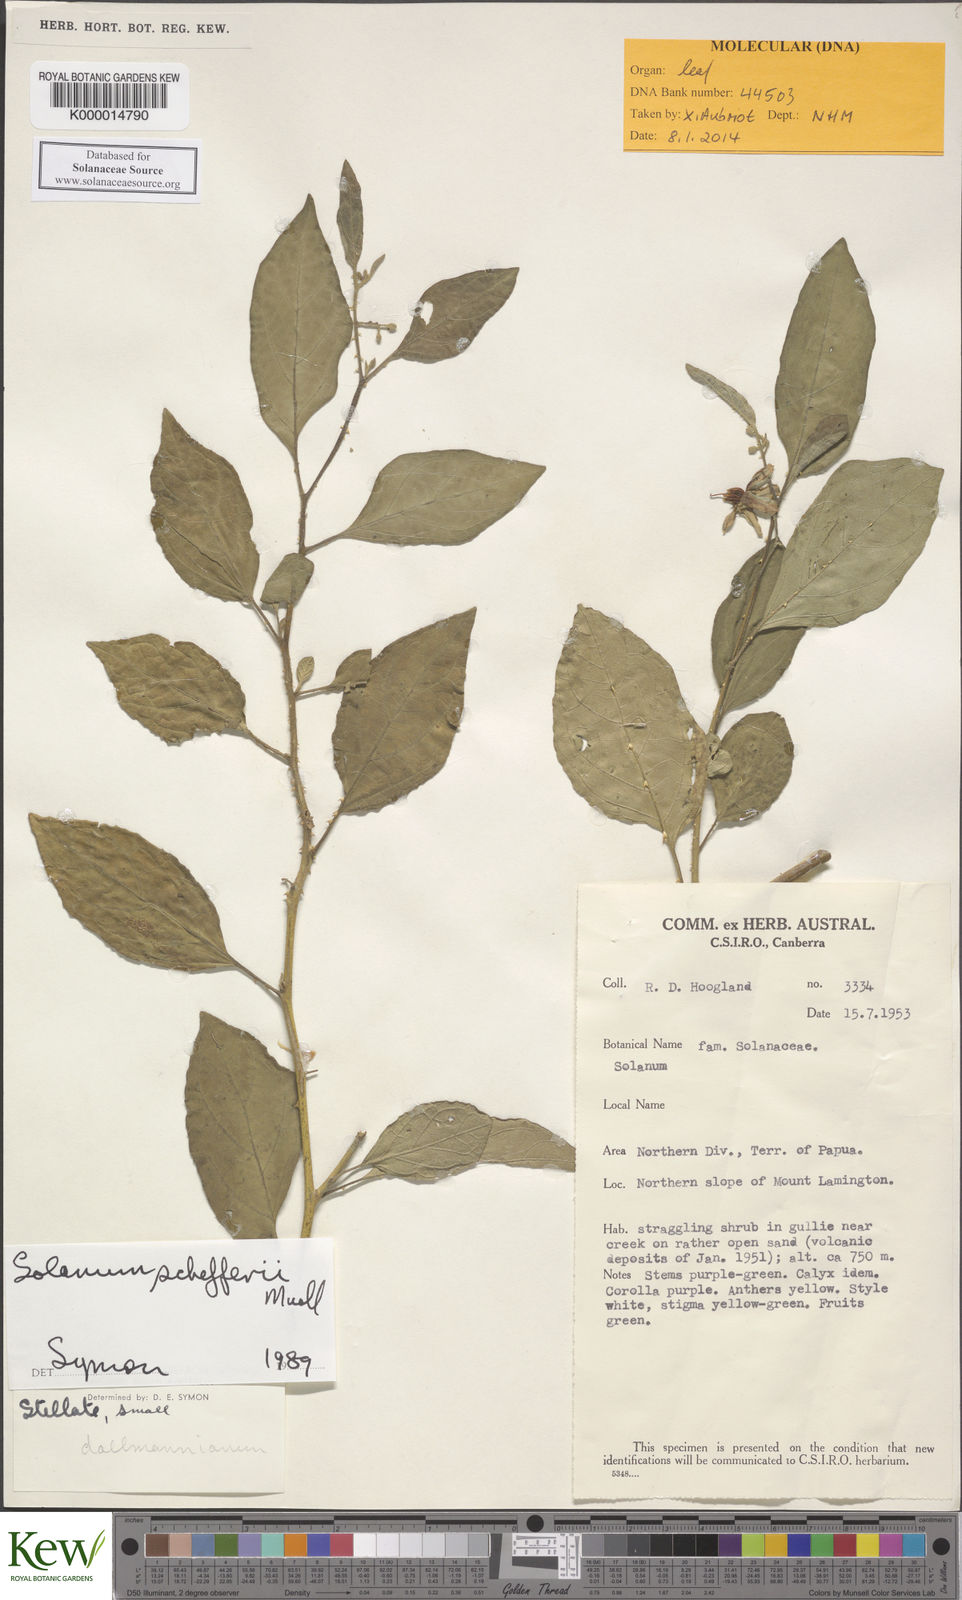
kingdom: Plantae
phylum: Tracheophyta
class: Magnoliopsida
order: Solanales
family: Solanaceae
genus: Solanum
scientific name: Solanum schefferi
